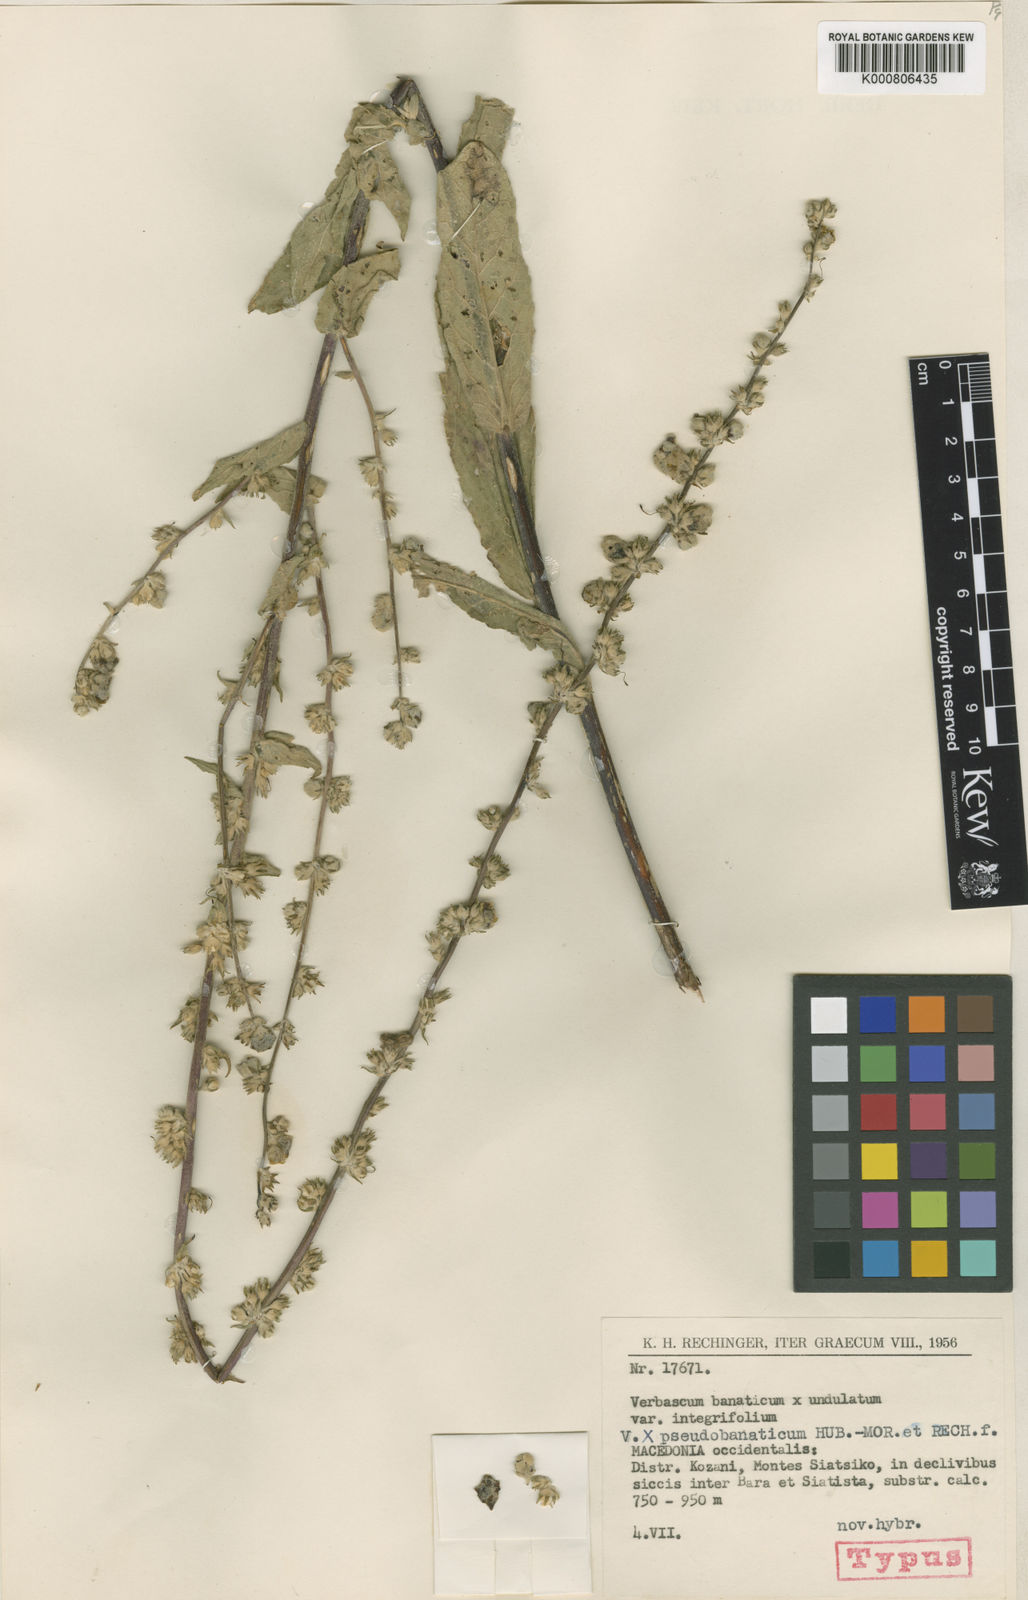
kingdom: Plantae
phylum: Tracheophyta
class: Magnoliopsida
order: Lamiales
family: Scrophulariaceae
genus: Verbascum
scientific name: Verbascum pseudobanaticum
